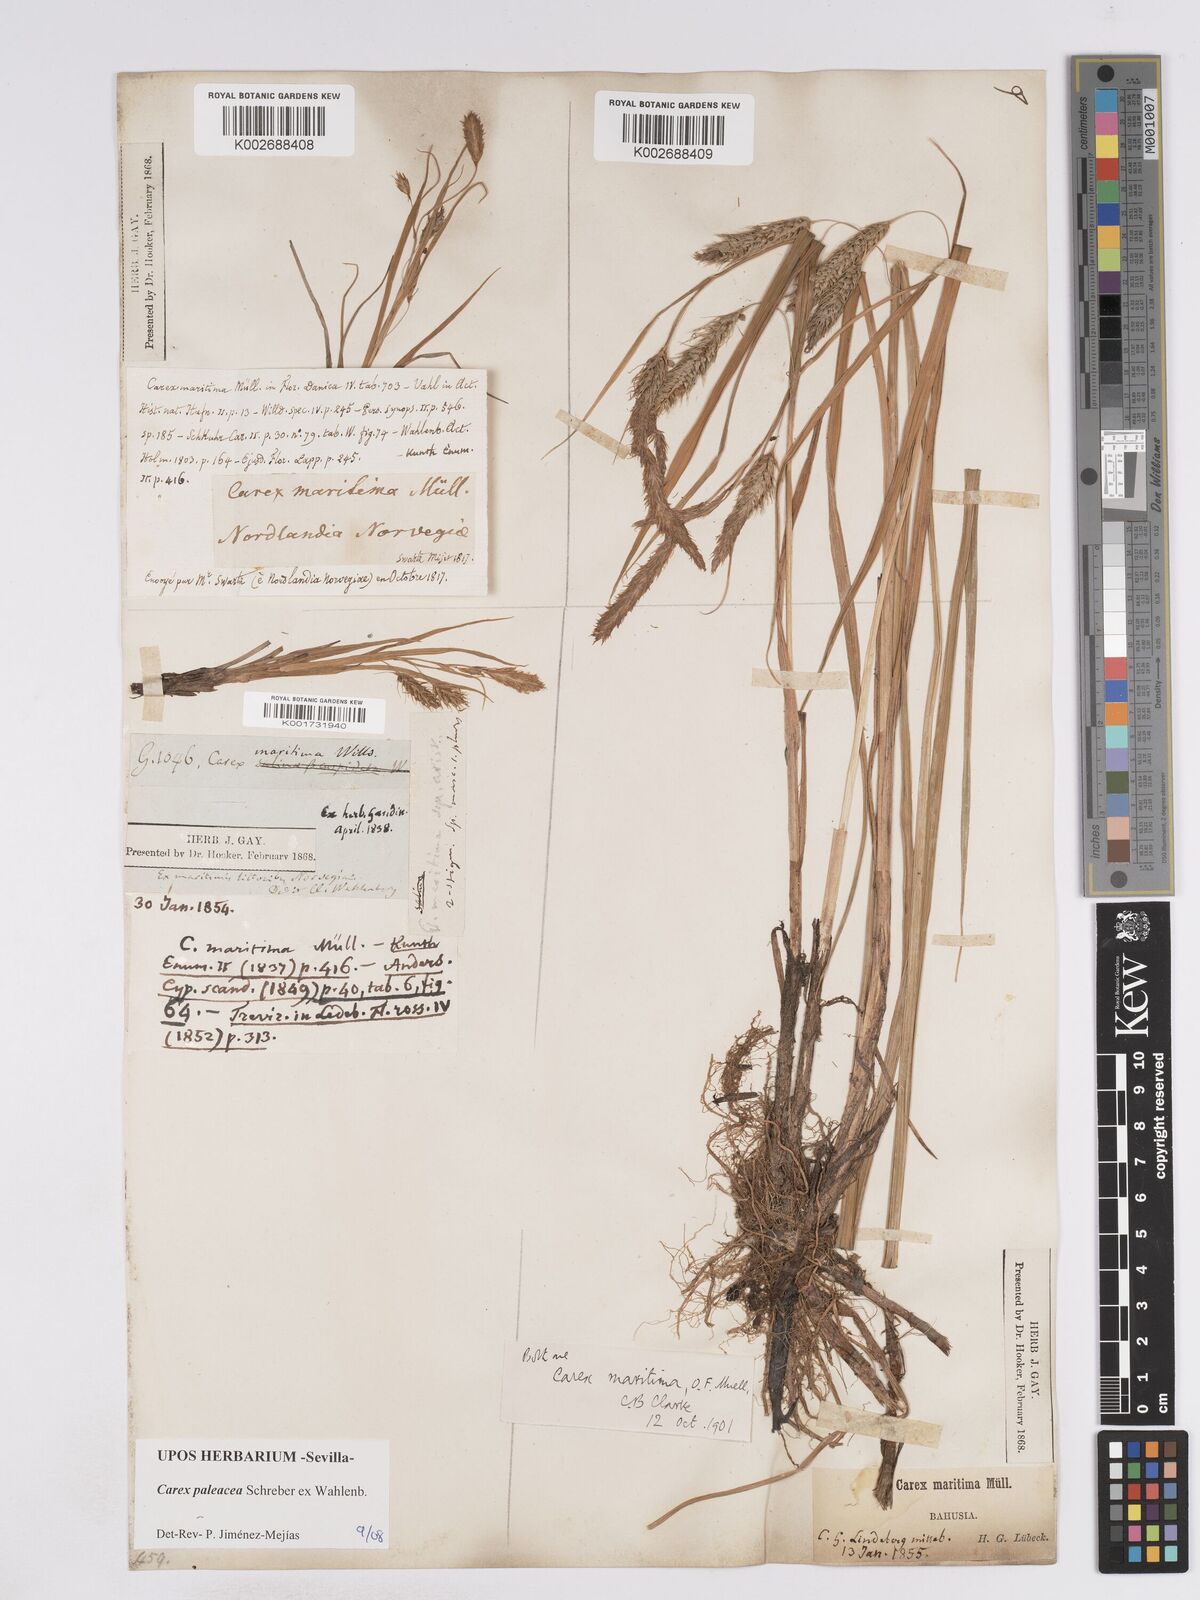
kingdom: Plantae
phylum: Tracheophyta
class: Liliopsida
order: Poales
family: Cyperaceae
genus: Carex
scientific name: Carex paleacea
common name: Chaffy sedge
